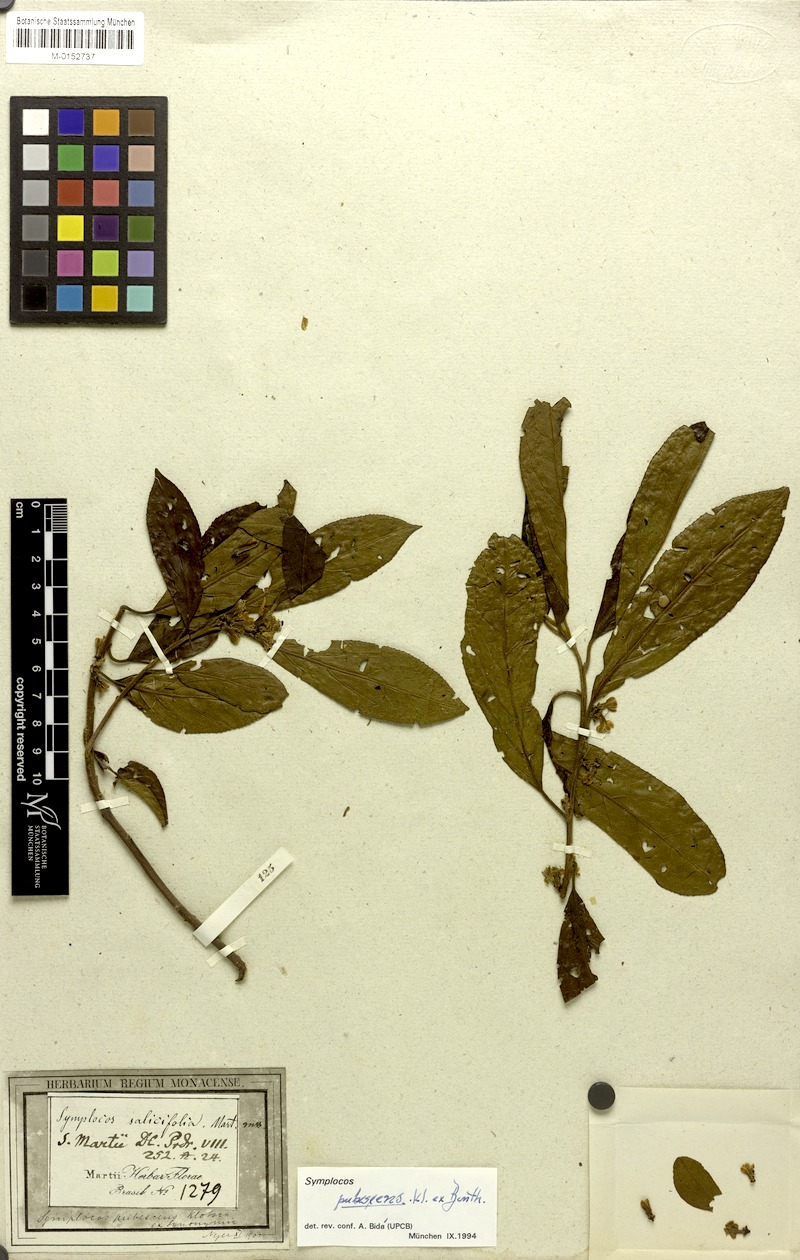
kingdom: Plantae
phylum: Tracheophyta
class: Magnoliopsida
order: Ericales
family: Symplocaceae
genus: Symplocos
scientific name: Symplocos pubescens
